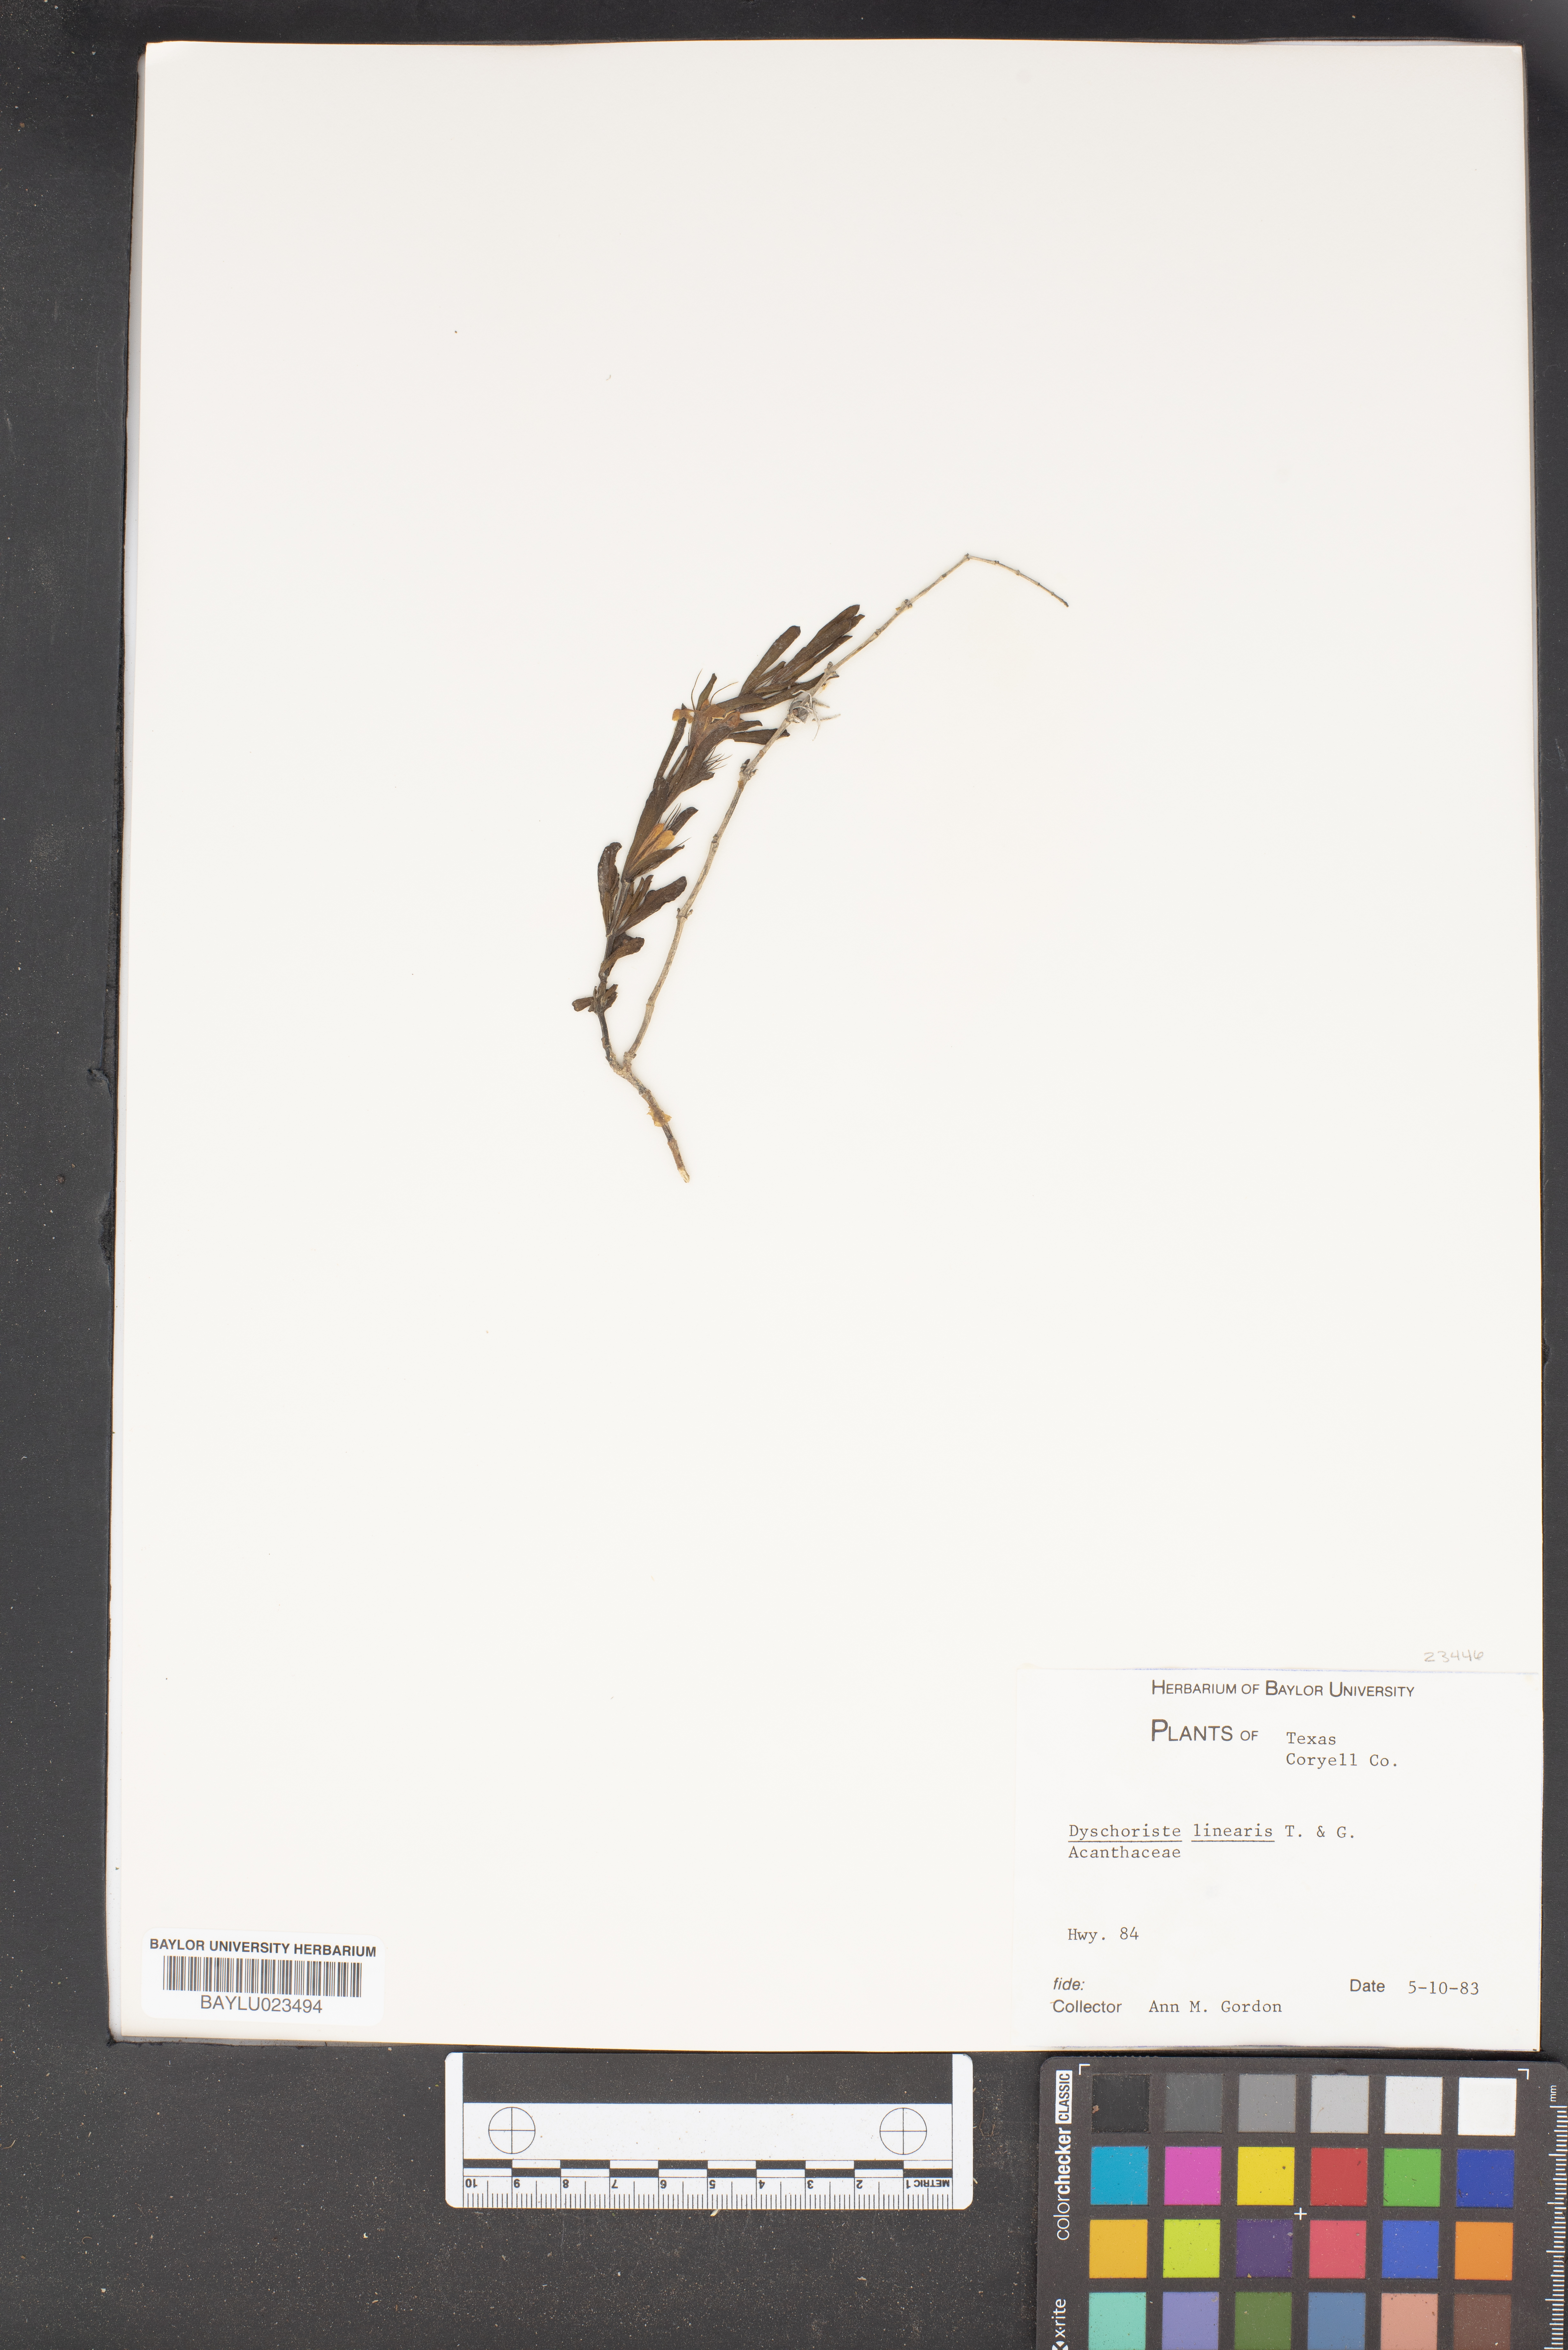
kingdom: Plantae
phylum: Tracheophyta
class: Magnoliopsida
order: Lamiales
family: Acanthaceae
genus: Dyschoriste
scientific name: Dyschoriste linearis
